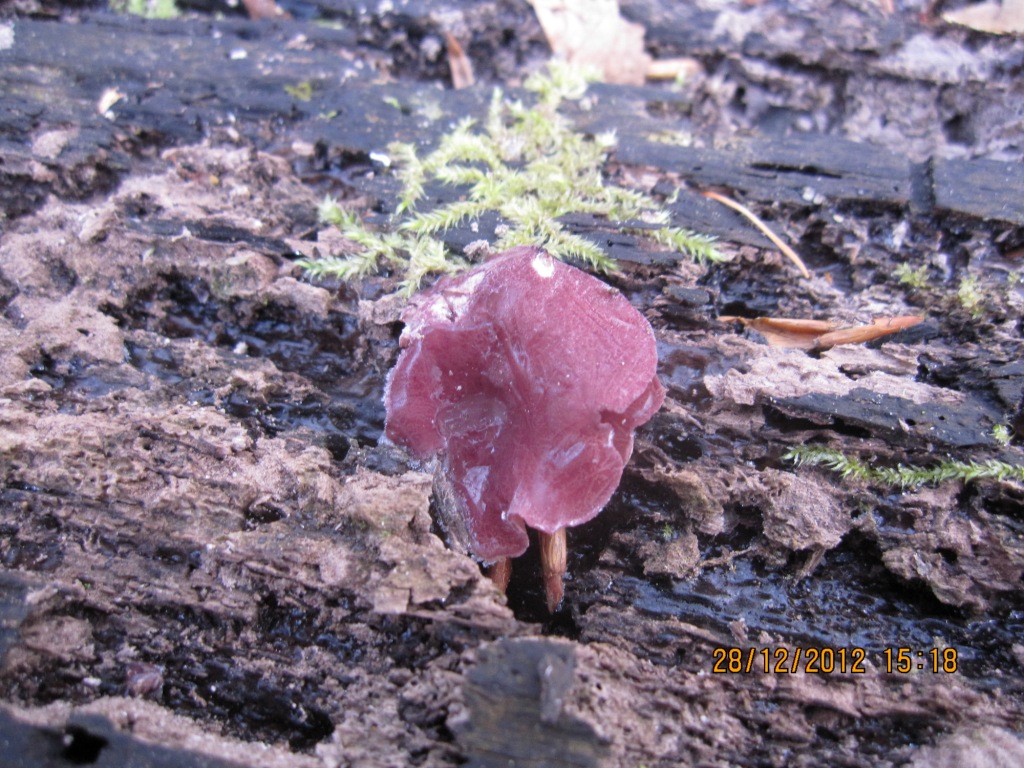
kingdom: Fungi
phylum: Ascomycota
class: Leotiomycetes
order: Helotiales
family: Gelatinodiscaceae
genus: Ascocoryne
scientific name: Ascocoryne cylichnium
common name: stor sejskive
